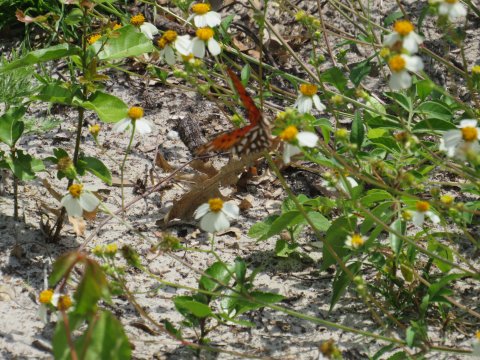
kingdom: Animalia
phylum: Arthropoda
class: Insecta
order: Lepidoptera
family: Nymphalidae
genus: Dione
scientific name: Dione vanillae
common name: Gulf Fritillary
